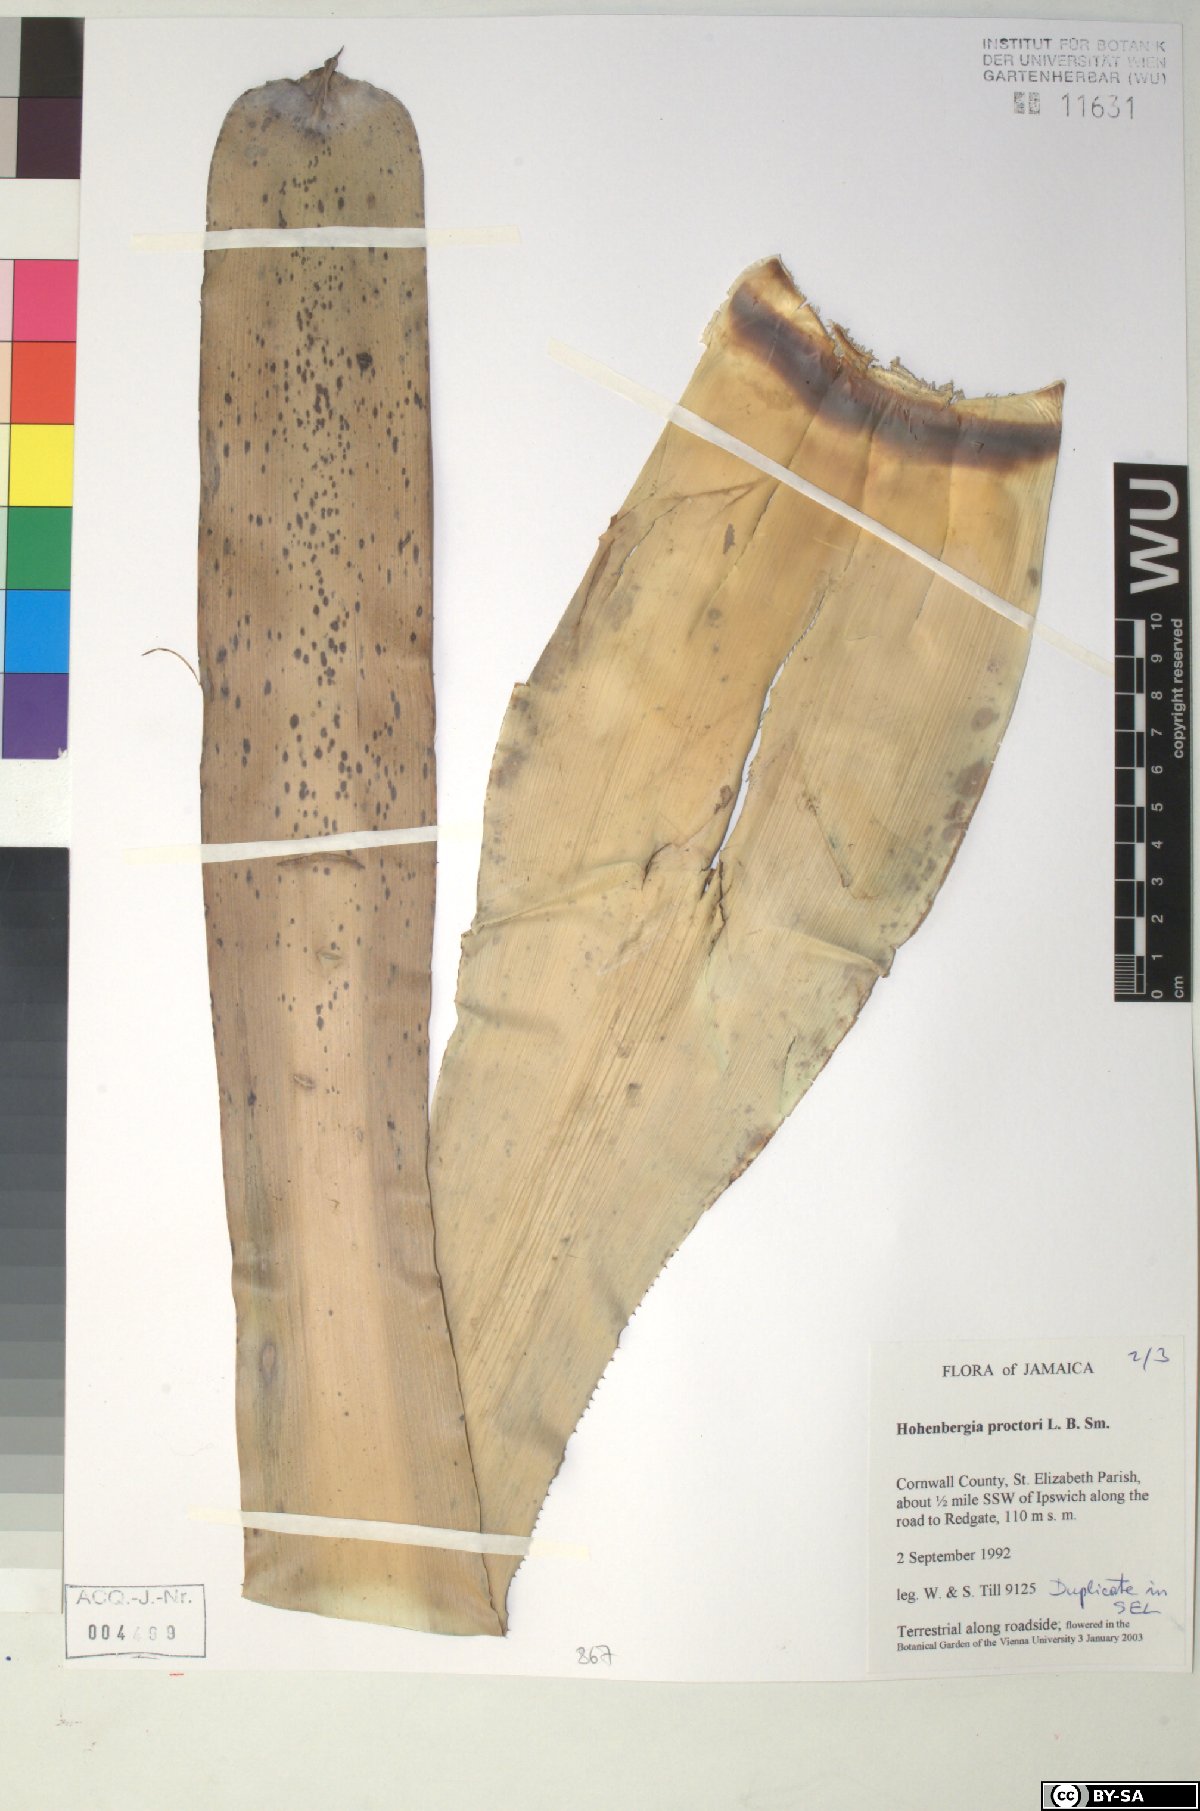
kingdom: Plantae
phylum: Tracheophyta
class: Liliopsida
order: Poales
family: Bromeliaceae
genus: Wittmackia
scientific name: Wittmackia urbaniana
